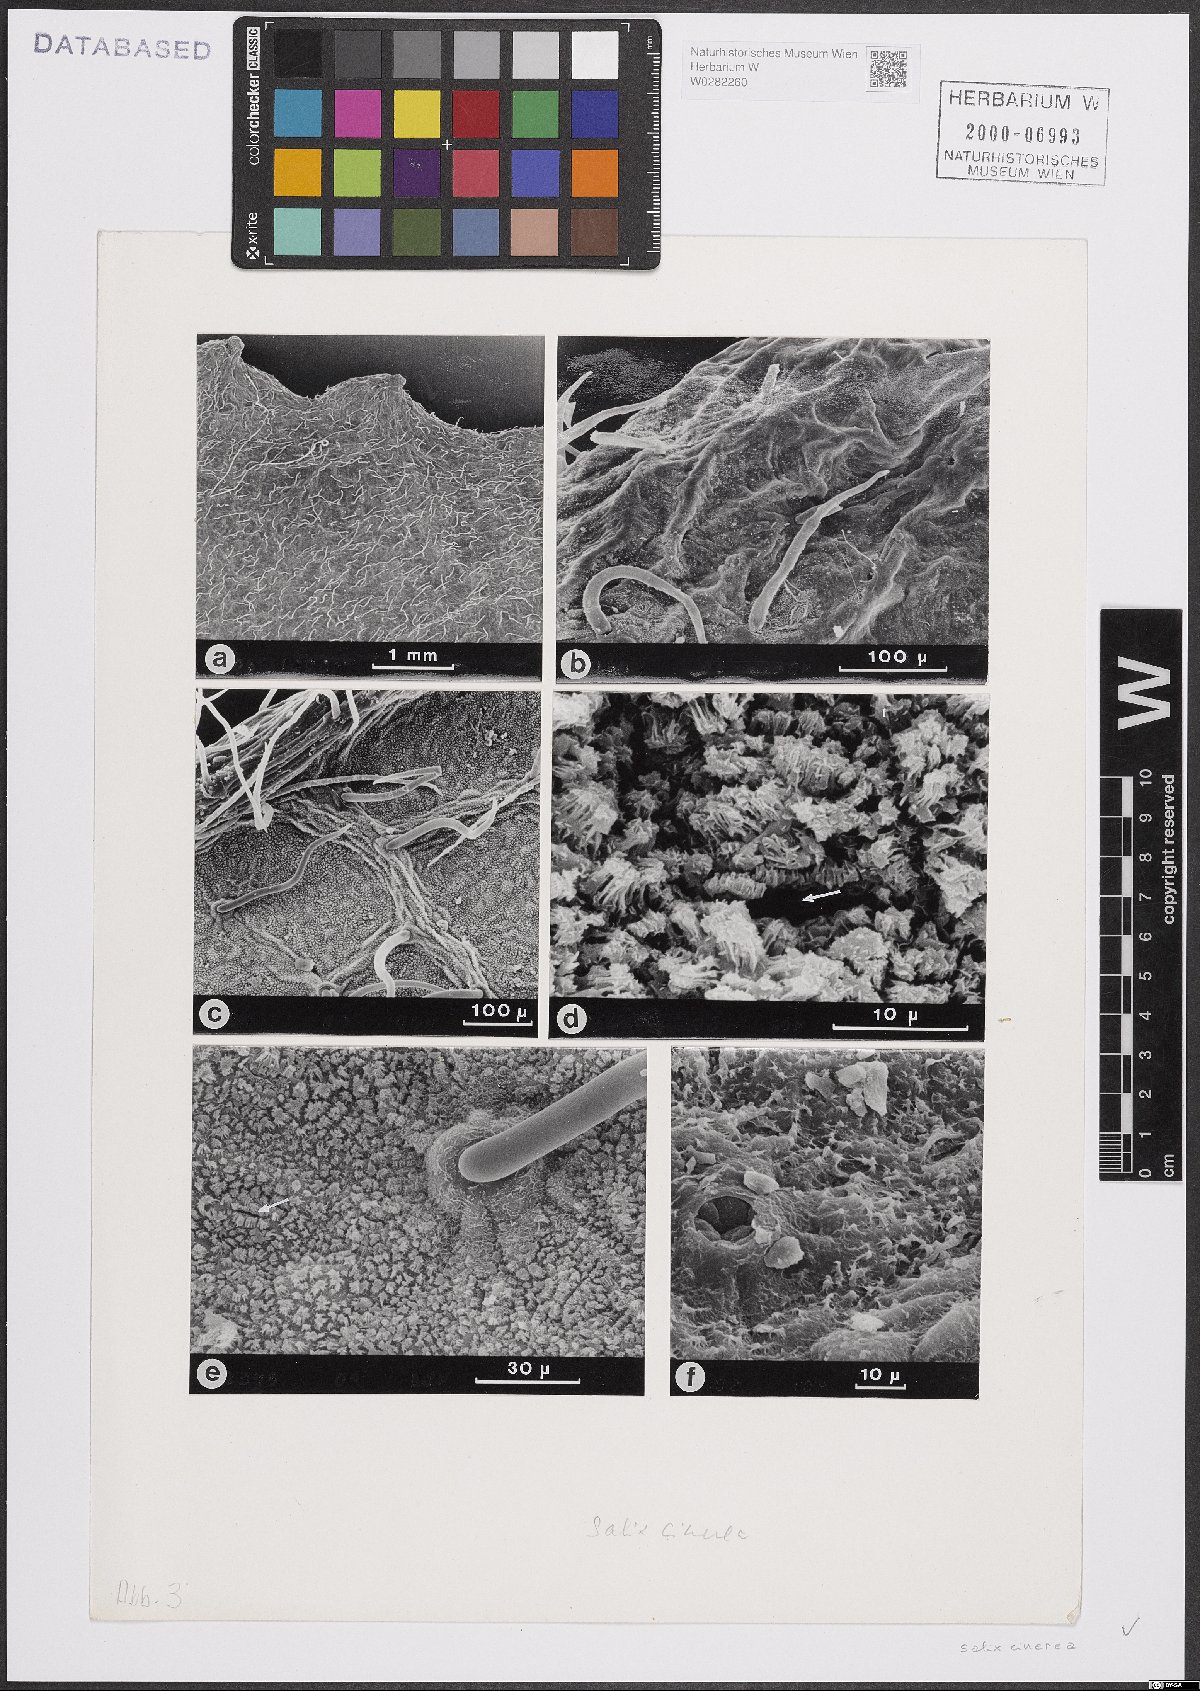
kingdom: Plantae
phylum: Tracheophyta
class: Magnoliopsida
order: Malpighiales
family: Salicaceae
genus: Salix
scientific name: Salix cinerea
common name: Common sallow
